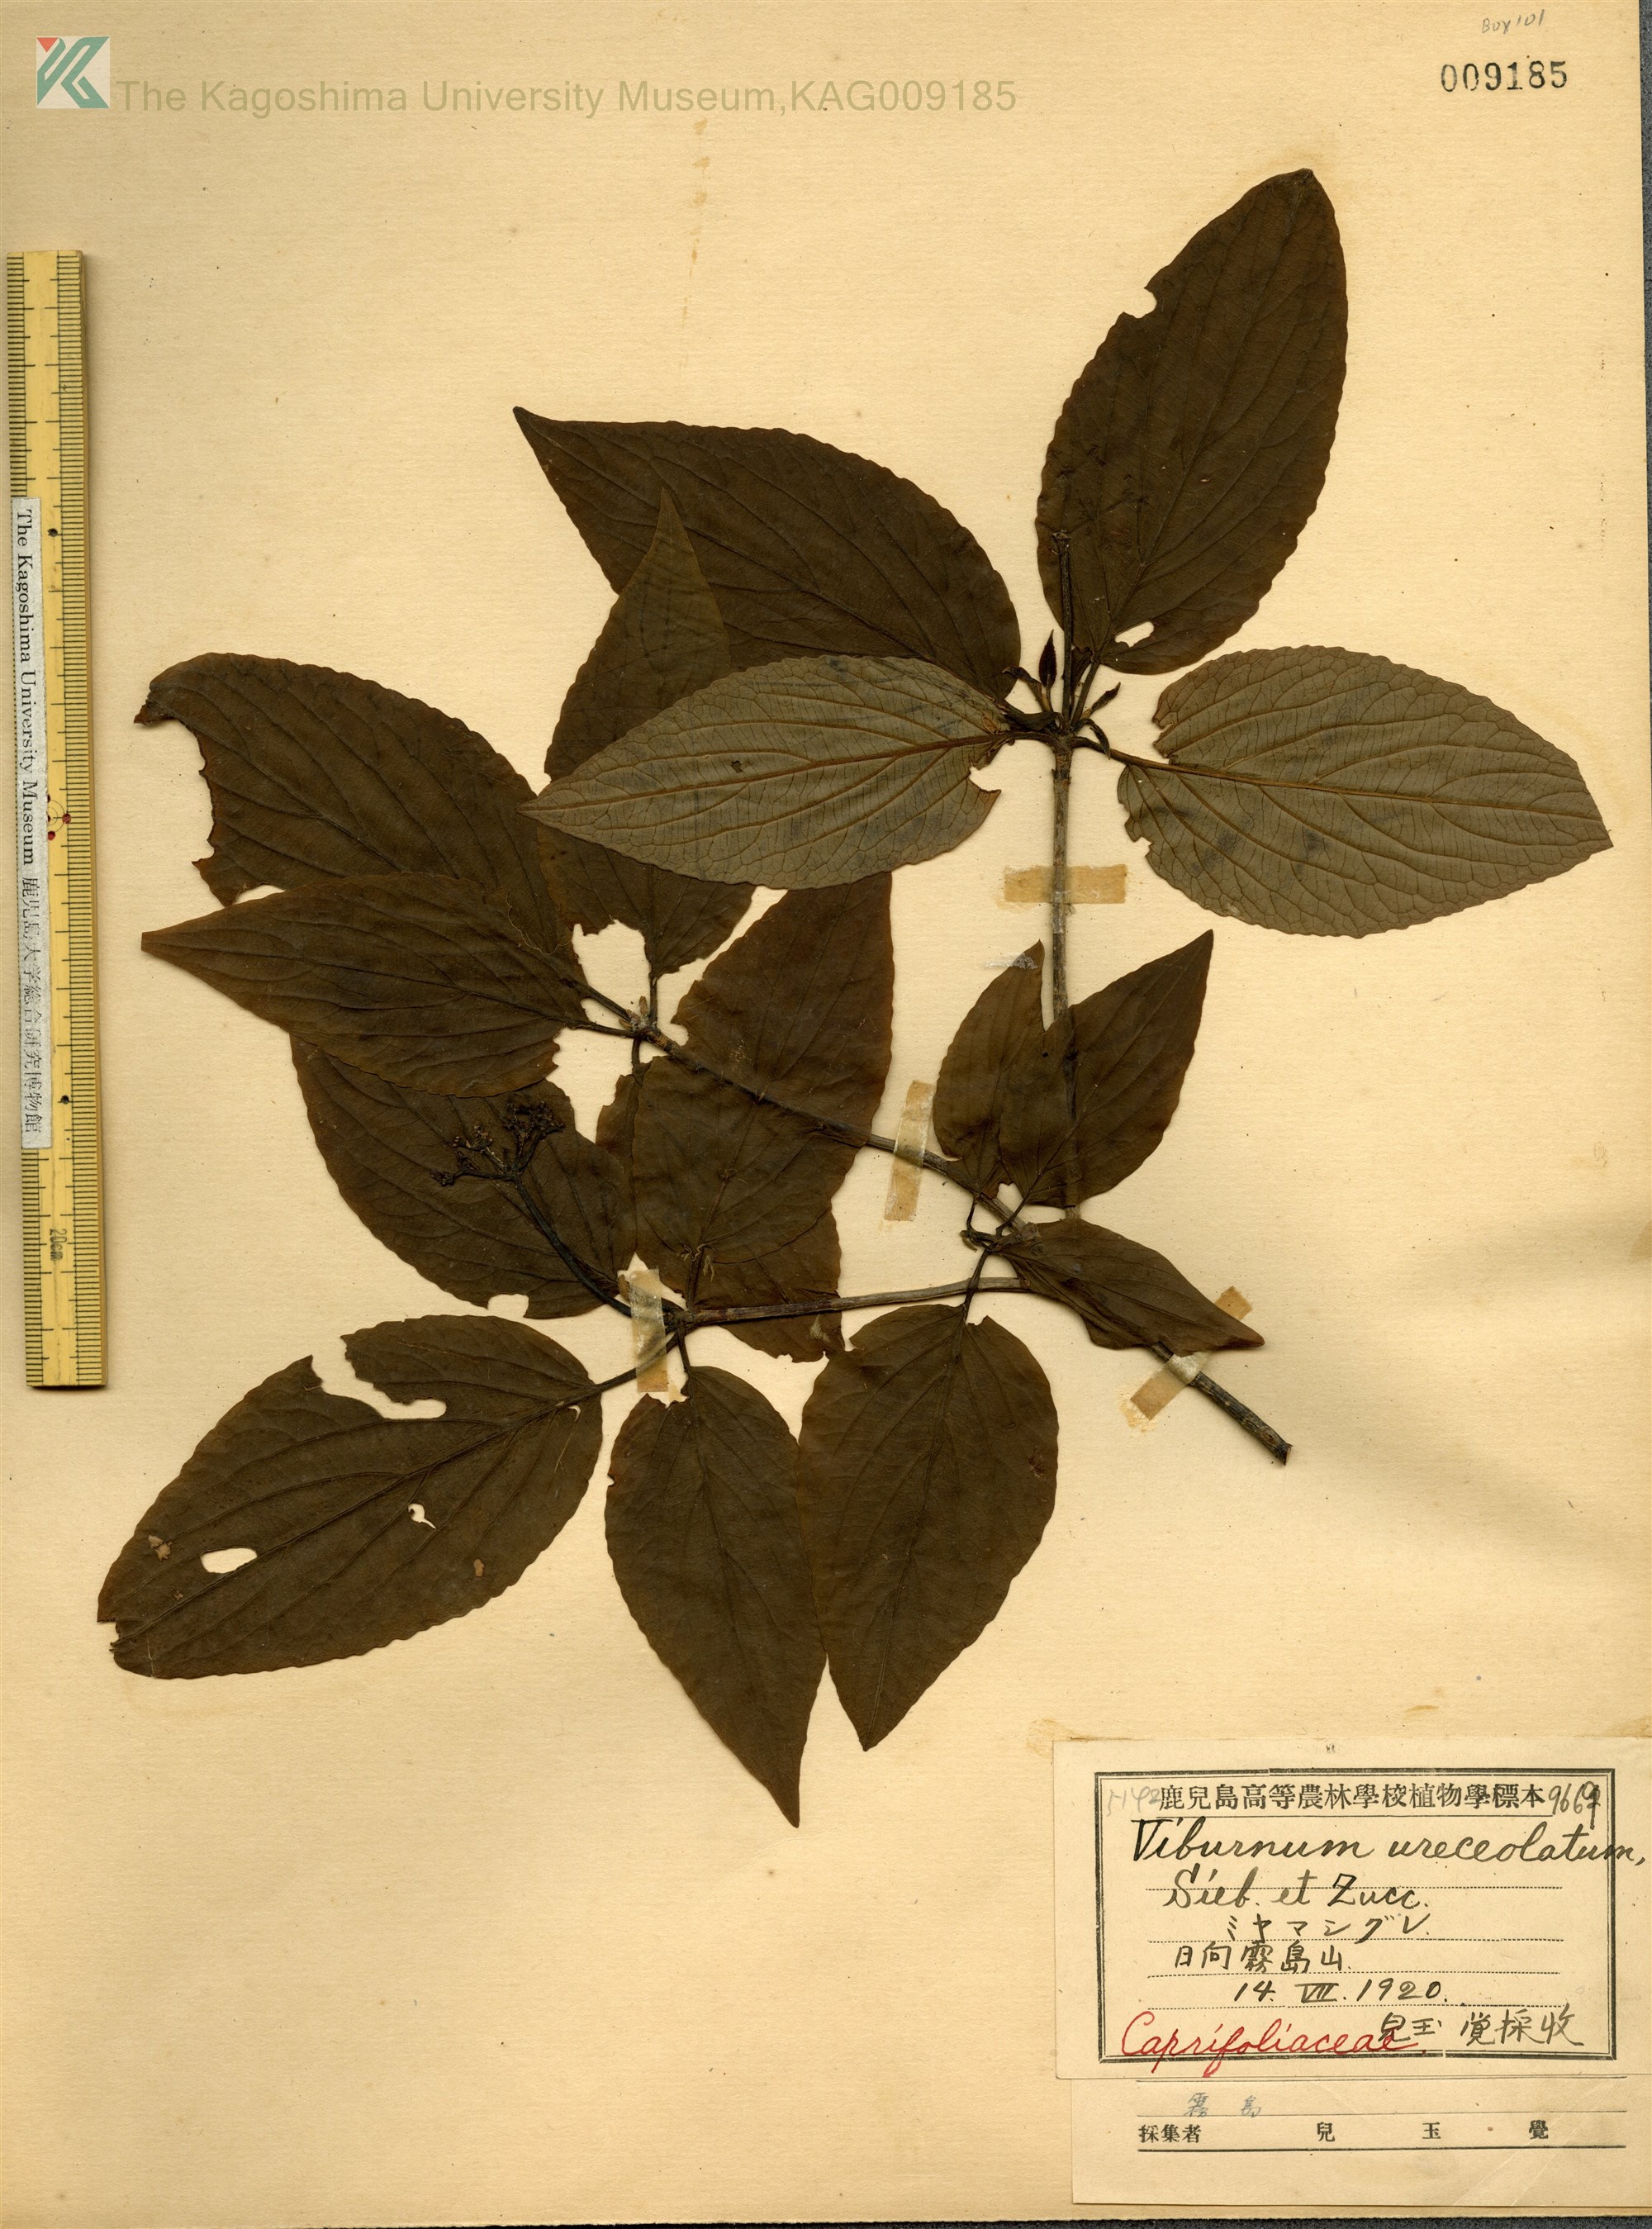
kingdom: Plantae
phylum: Tracheophyta
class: Magnoliopsida
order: Dipsacales
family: Viburnaceae
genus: Viburnum
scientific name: Viburnum urceolatum
